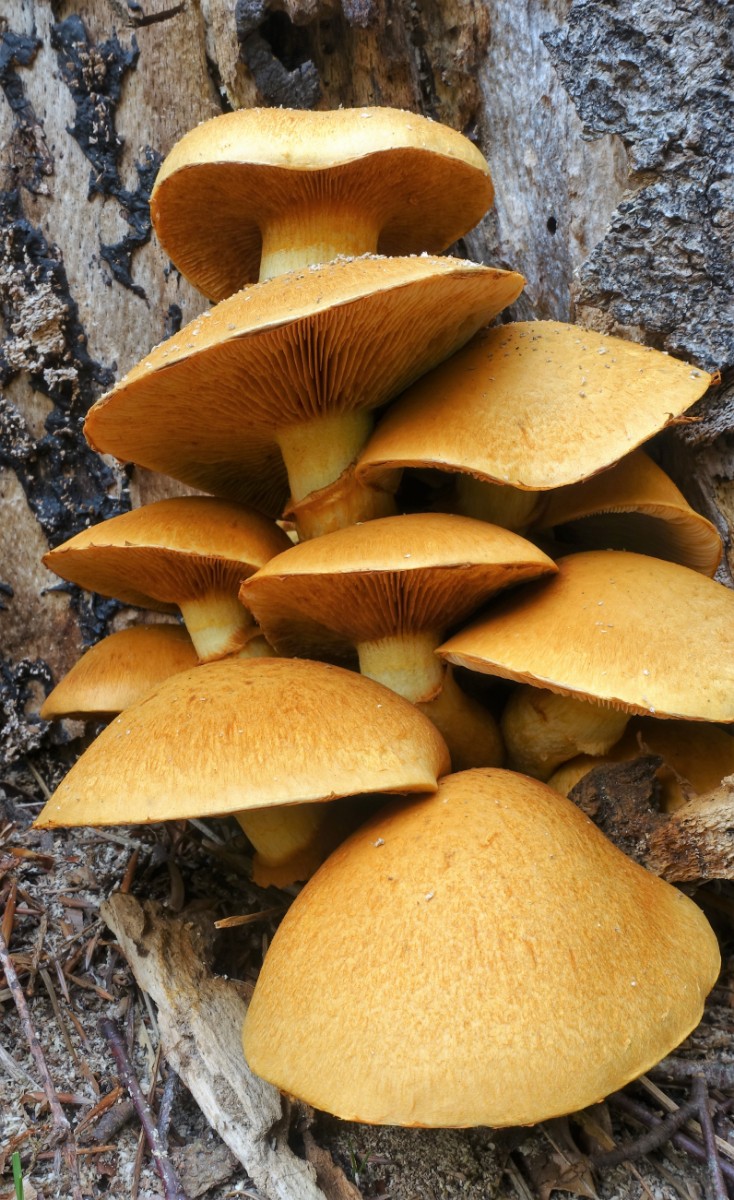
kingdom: Fungi
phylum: Basidiomycota
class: Agaricomycetes
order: Agaricales
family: Hymenogastraceae
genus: Gymnopilus
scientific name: Gymnopilus spectabilis
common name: fibret flammehat
